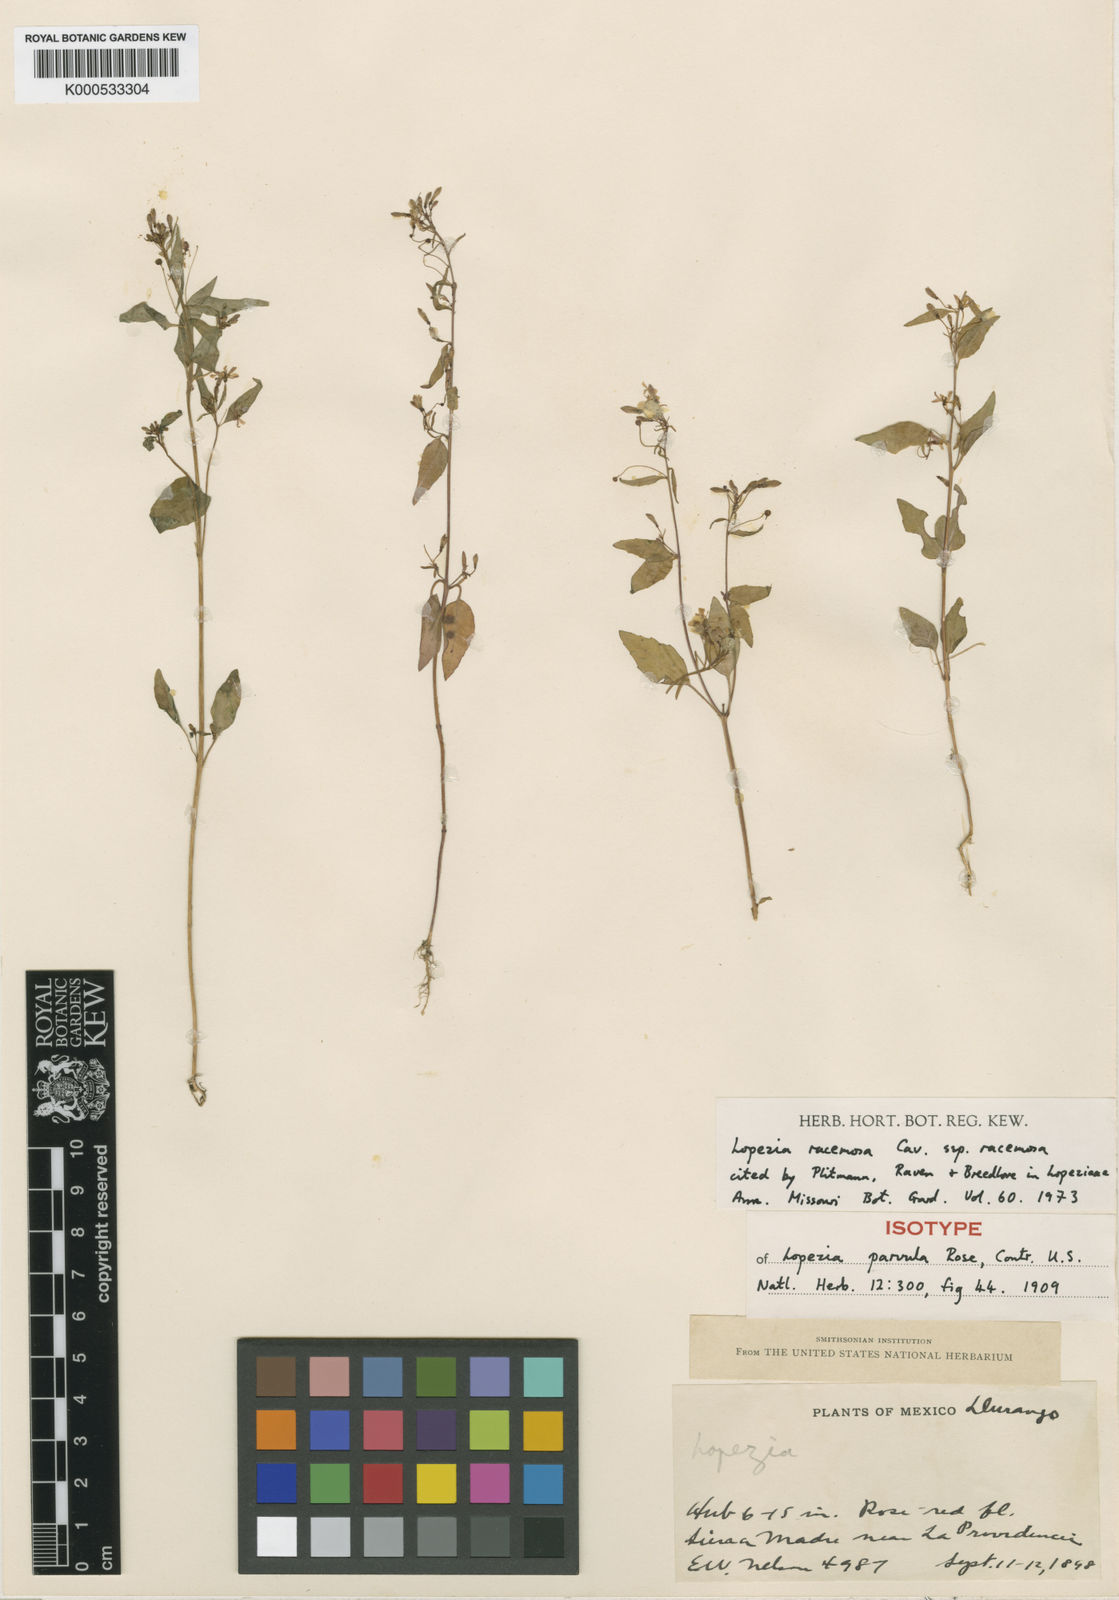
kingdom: Plantae
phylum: Tracheophyta
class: Magnoliopsida
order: Myrtales
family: Onagraceae
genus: Lopezia
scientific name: Lopezia racemosa
